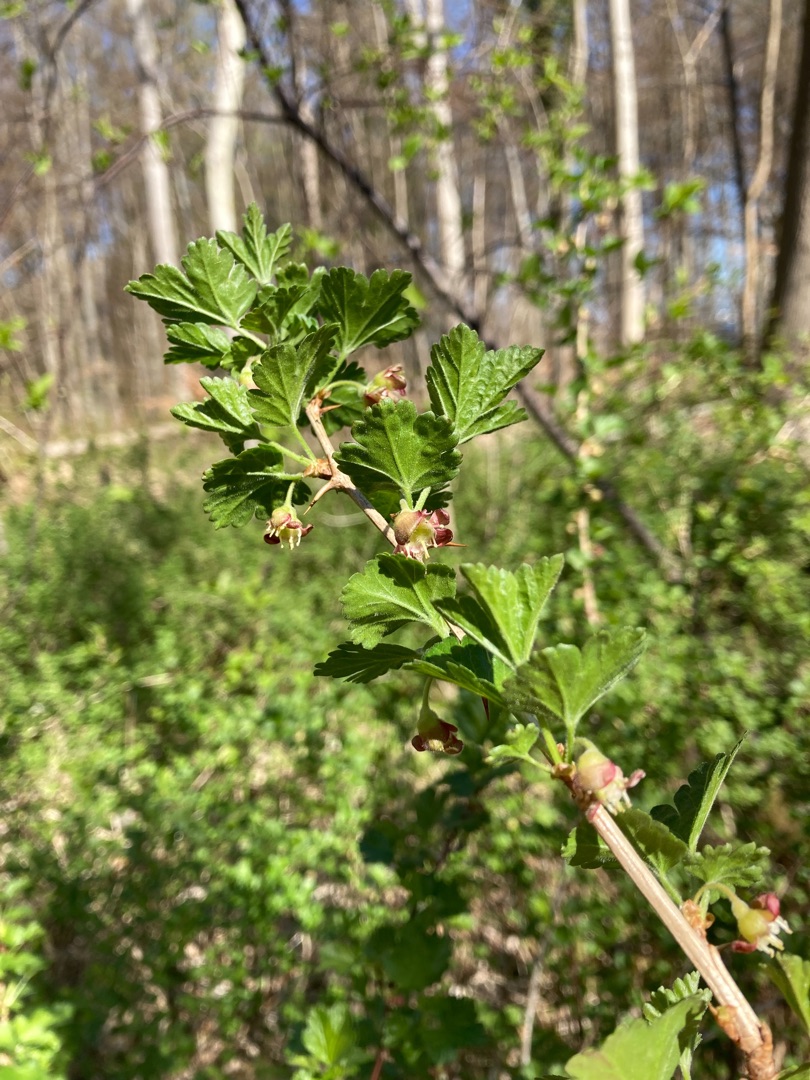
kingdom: Plantae
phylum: Tracheophyta
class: Magnoliopsida
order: Saxifragales
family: Grossulariaceae
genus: Ribes
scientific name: Ribes uva-crispa
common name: Stikkelsbær
